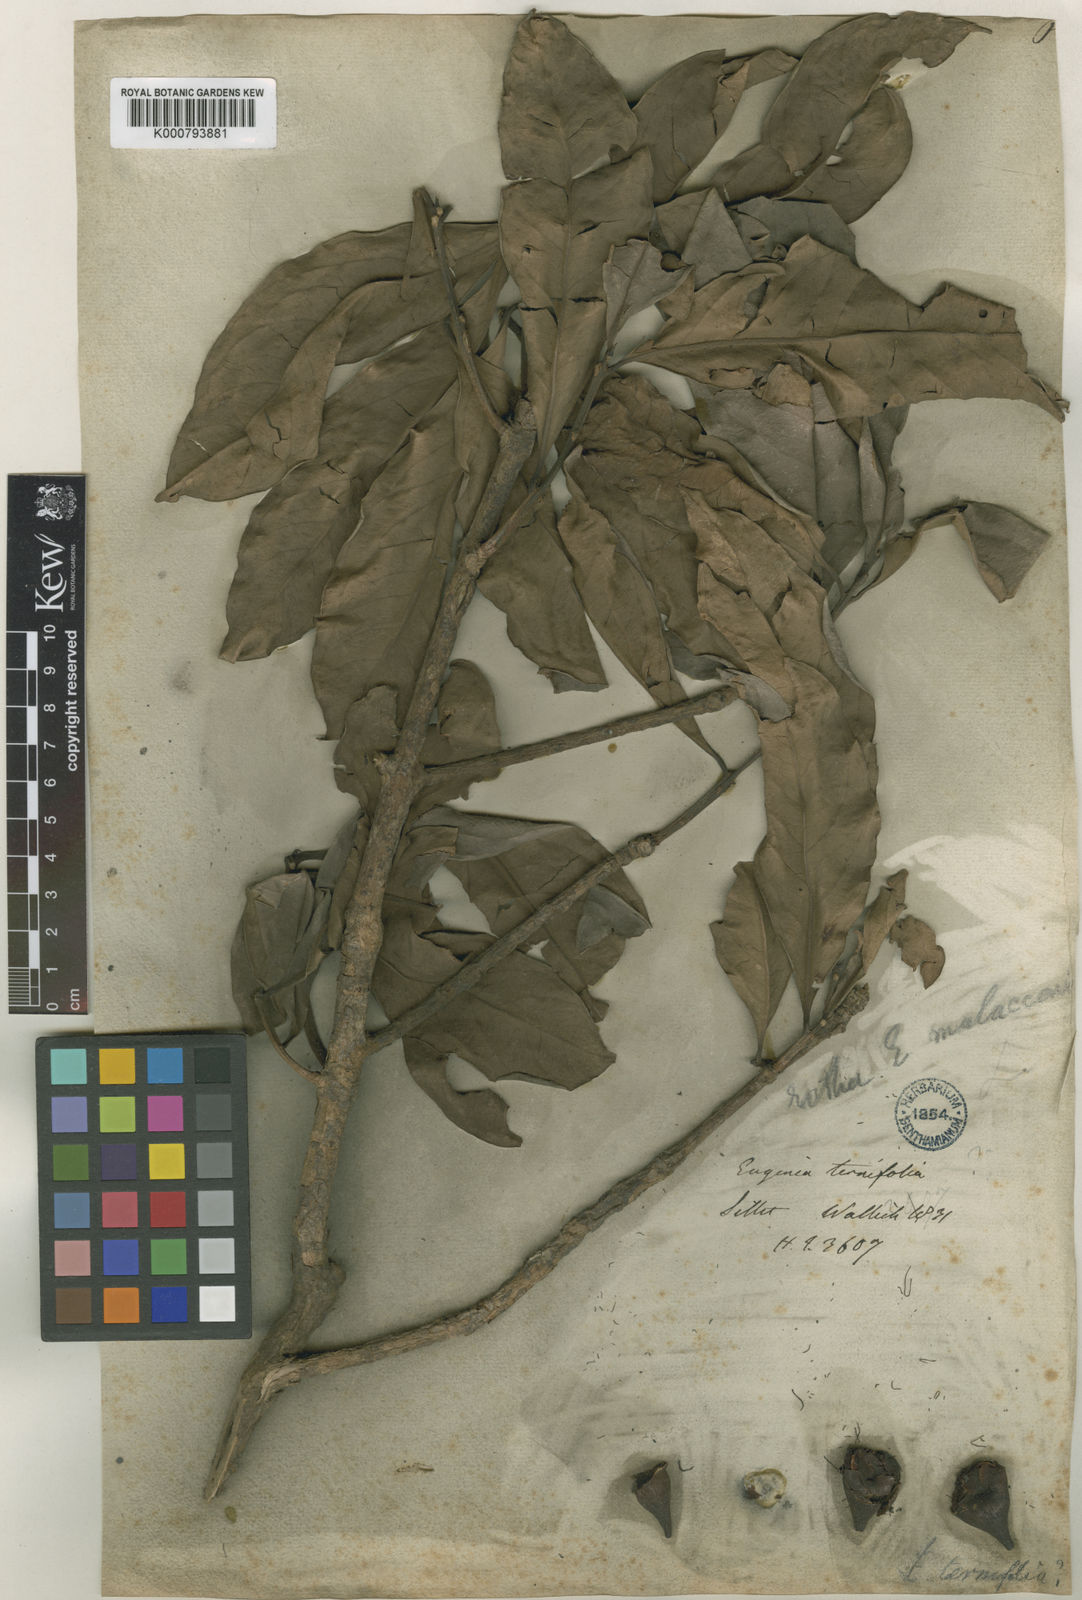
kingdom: Plantae
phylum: Tracheophyta
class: Magnoliopsida
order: Myrtales
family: Myrtaceae
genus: Syzygium
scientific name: Syzygium malaccense
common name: Malaysian apple
